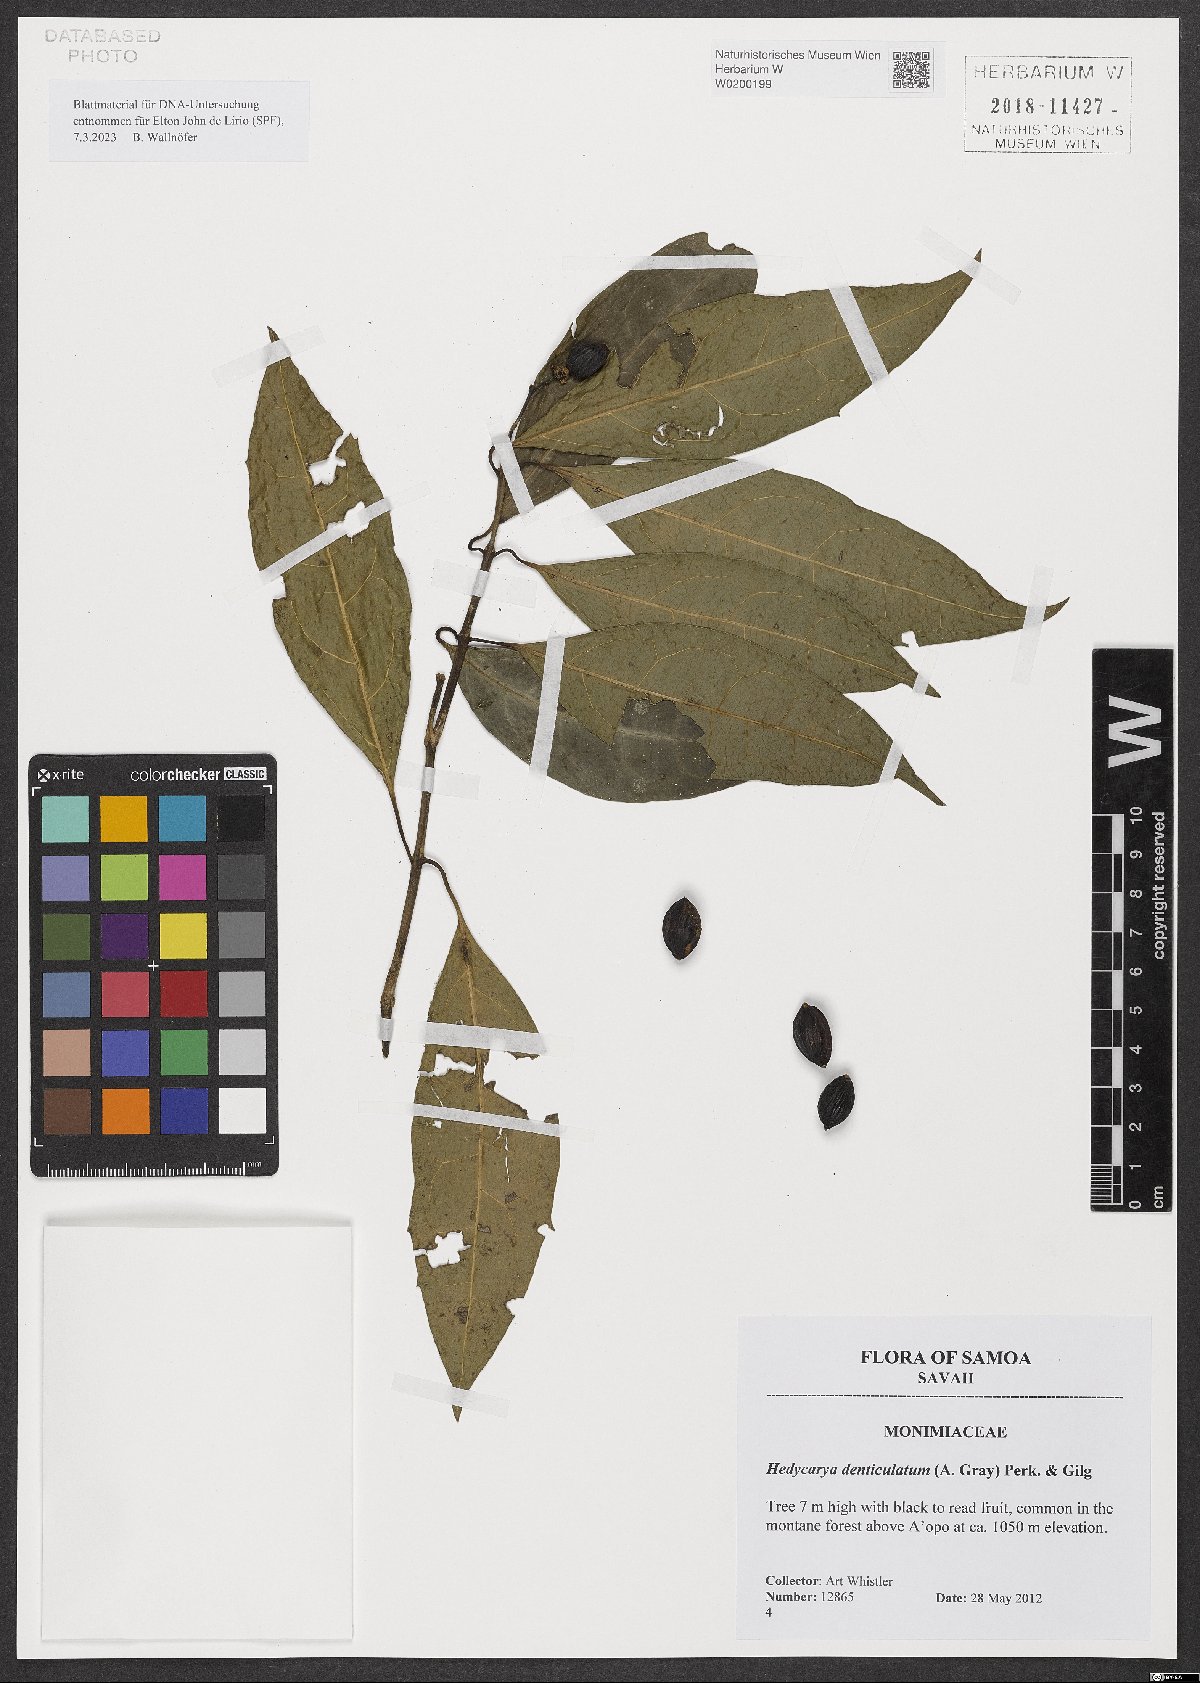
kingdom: Plantae
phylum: Tracheophyta
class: Magnoliopsida
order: Laurales
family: Monimiaceae
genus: Hedycarya
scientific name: Hedycarya denticulata
